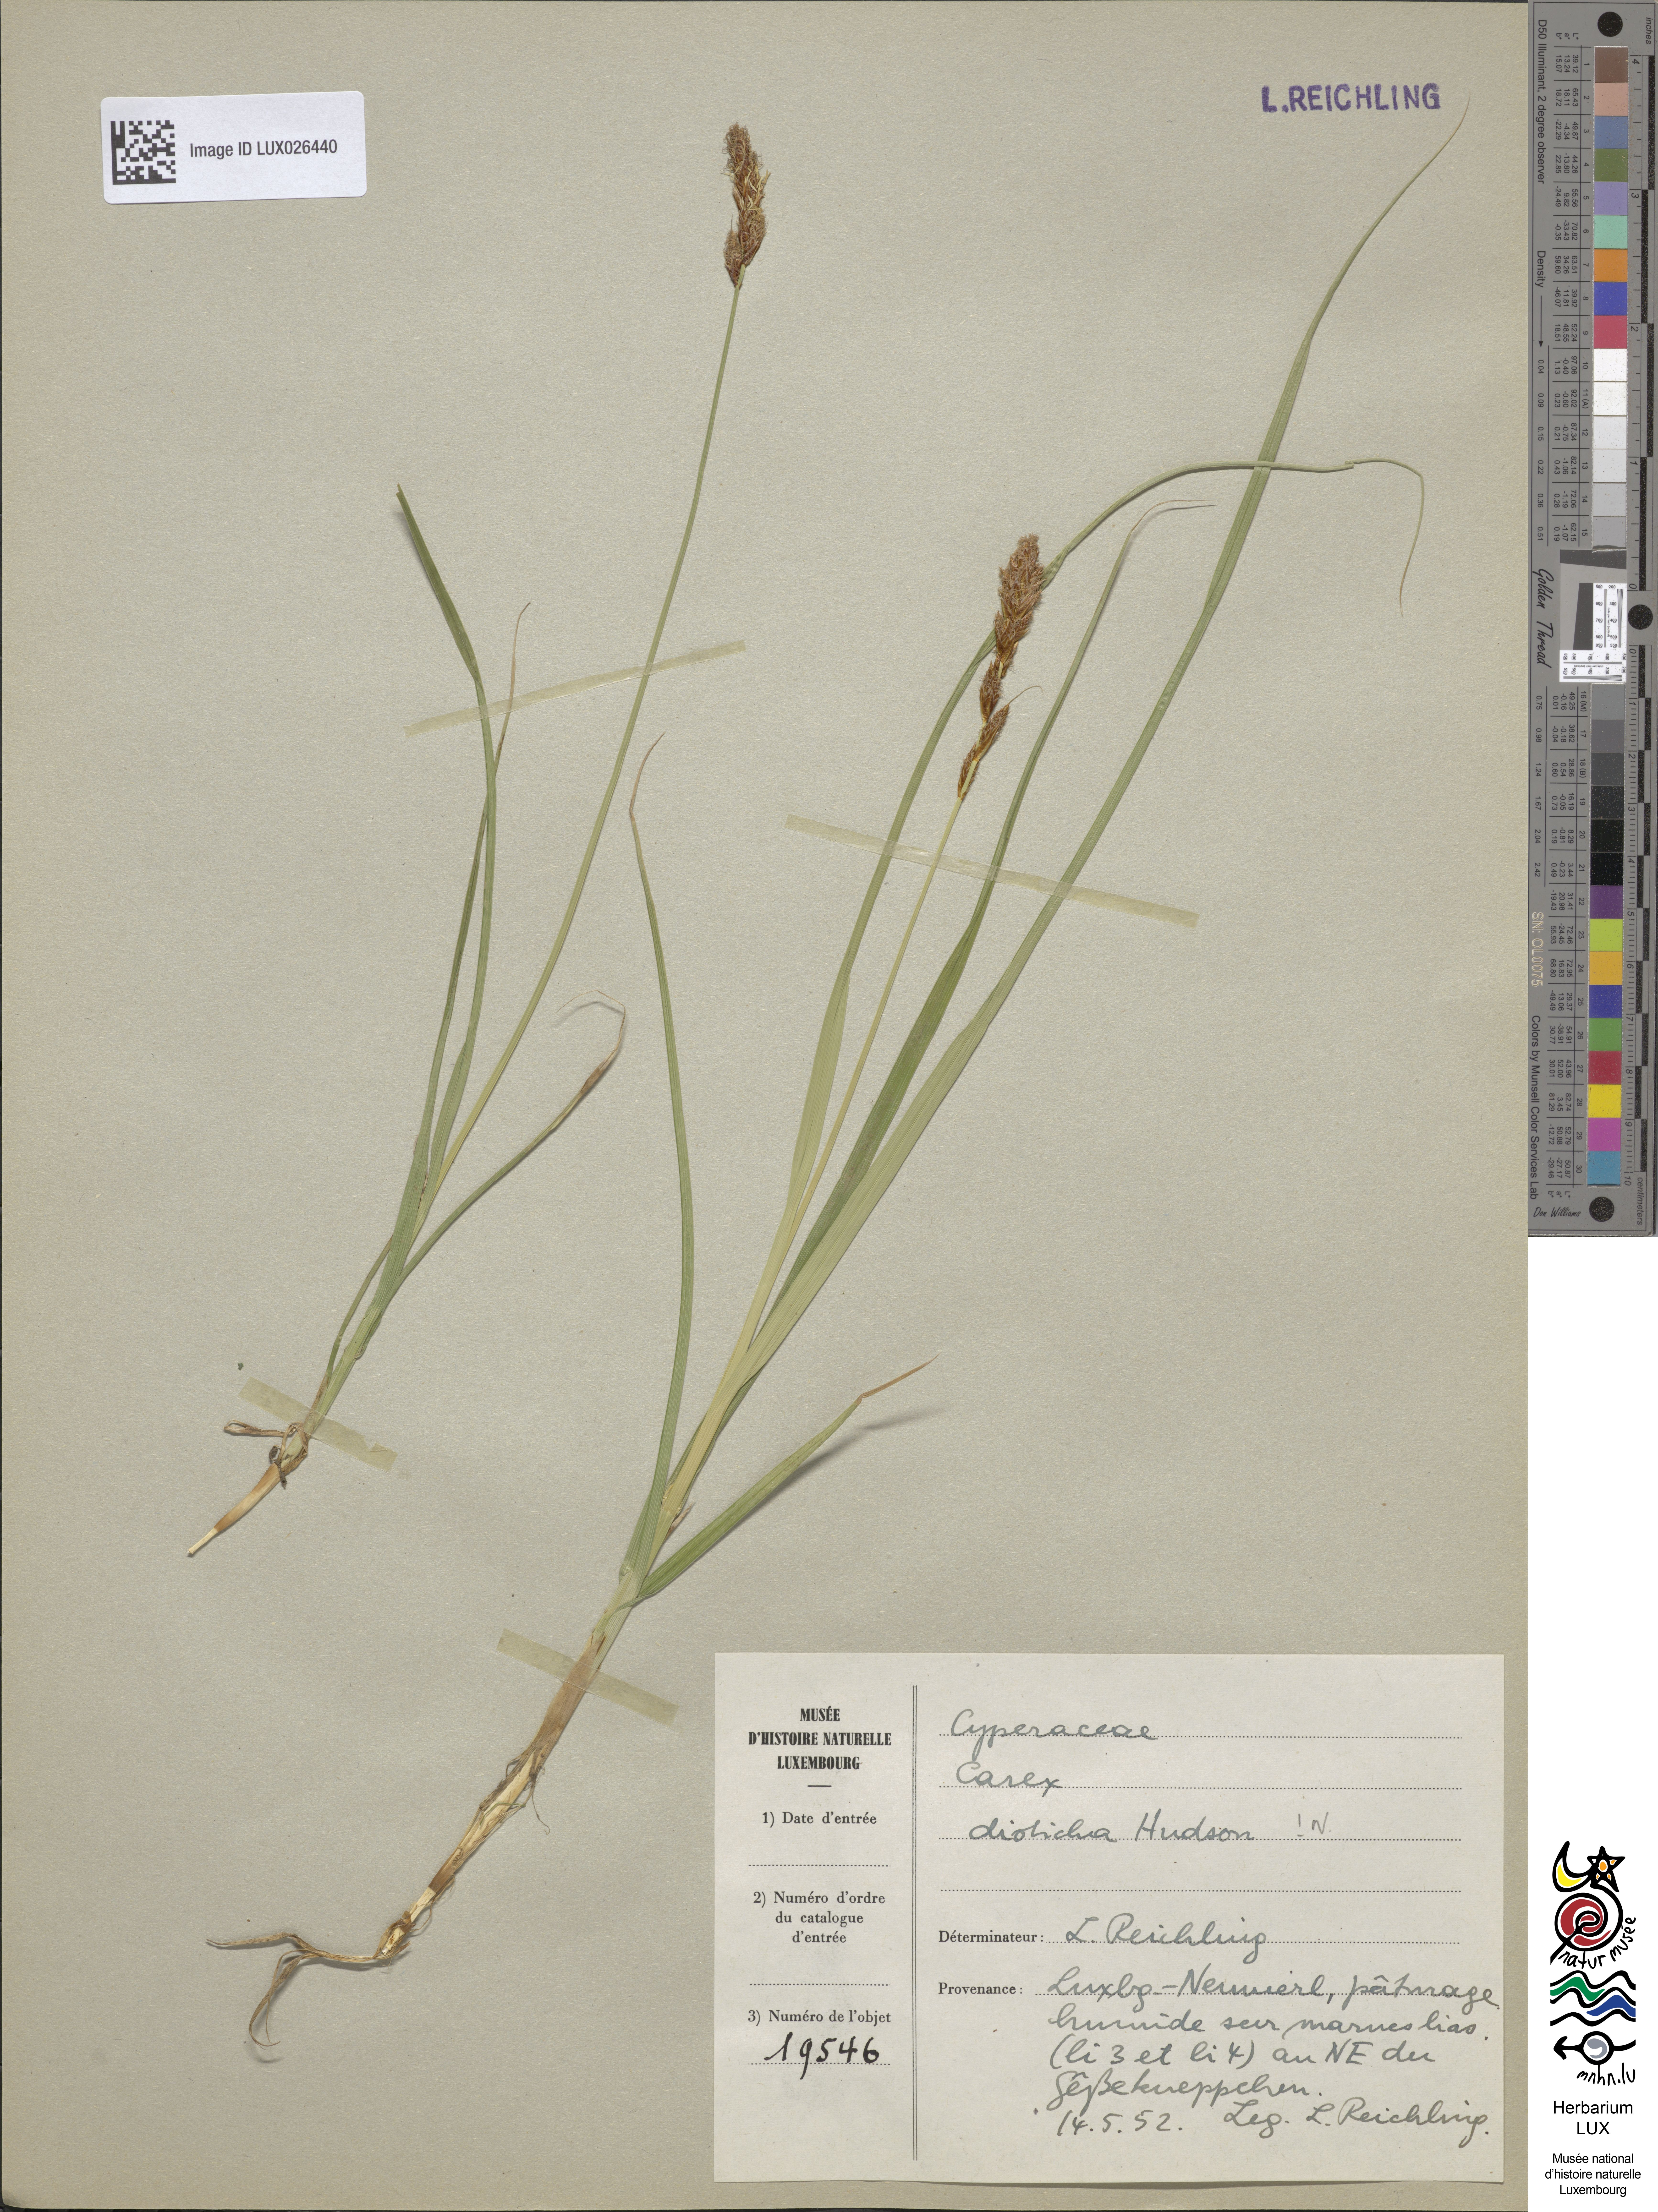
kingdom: Plantae
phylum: Tracheophyta
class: Liliopsida
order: Poales
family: Cyperaceae
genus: Carex
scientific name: Carex disticha
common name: Brown sedge
